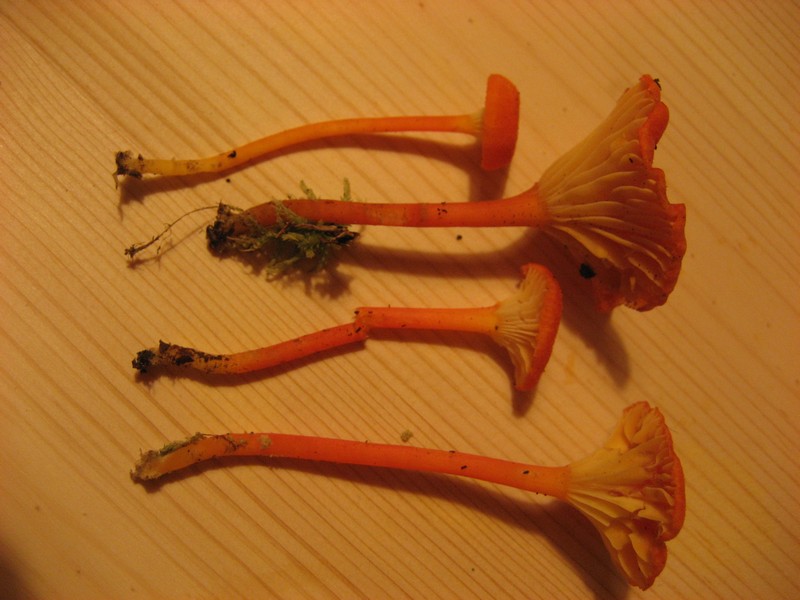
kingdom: Fungi
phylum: Basidiomycota
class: Agaricomycetes
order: Agaricales
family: Hygrophoraceae
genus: Hygrocybe
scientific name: Hygrocybe cantharellus
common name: kantarel-vokshat
